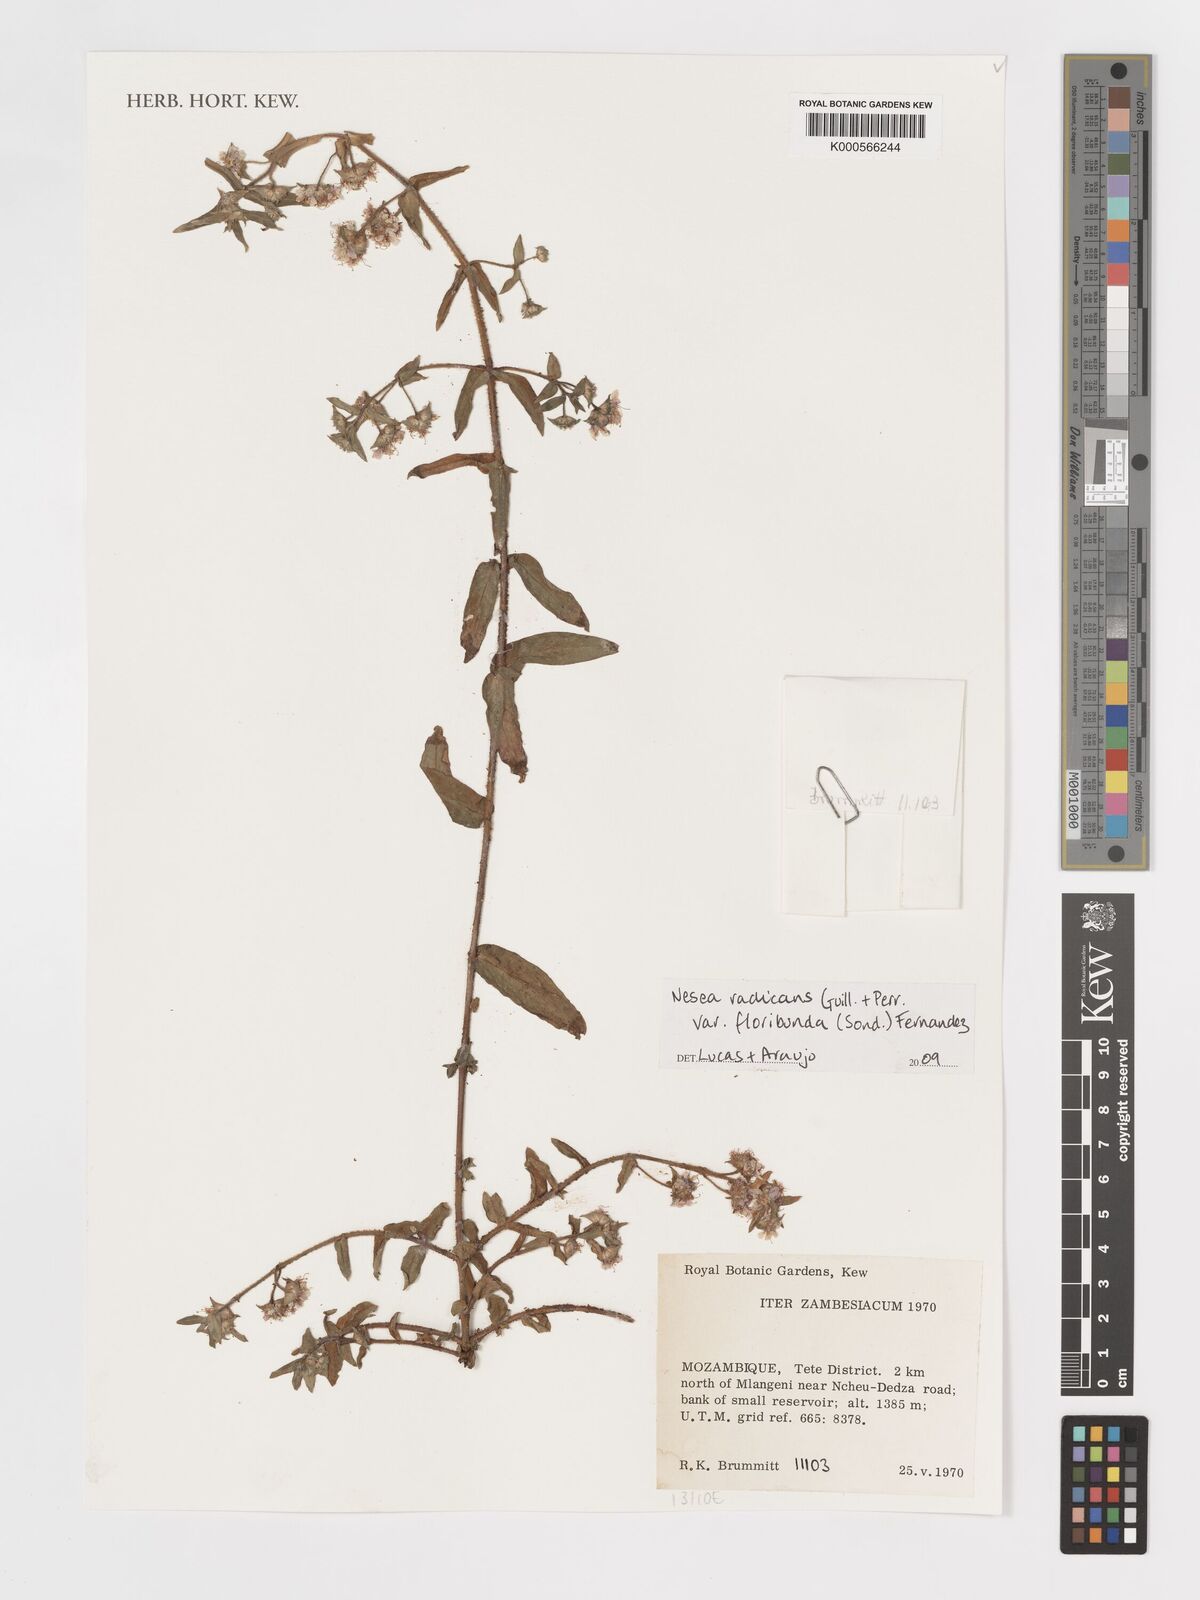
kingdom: Plantae
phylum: Tracheophyta
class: Magnoliopsida
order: Myrtales
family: Lythraceae
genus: Ammannia
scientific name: Ammannia radicans
